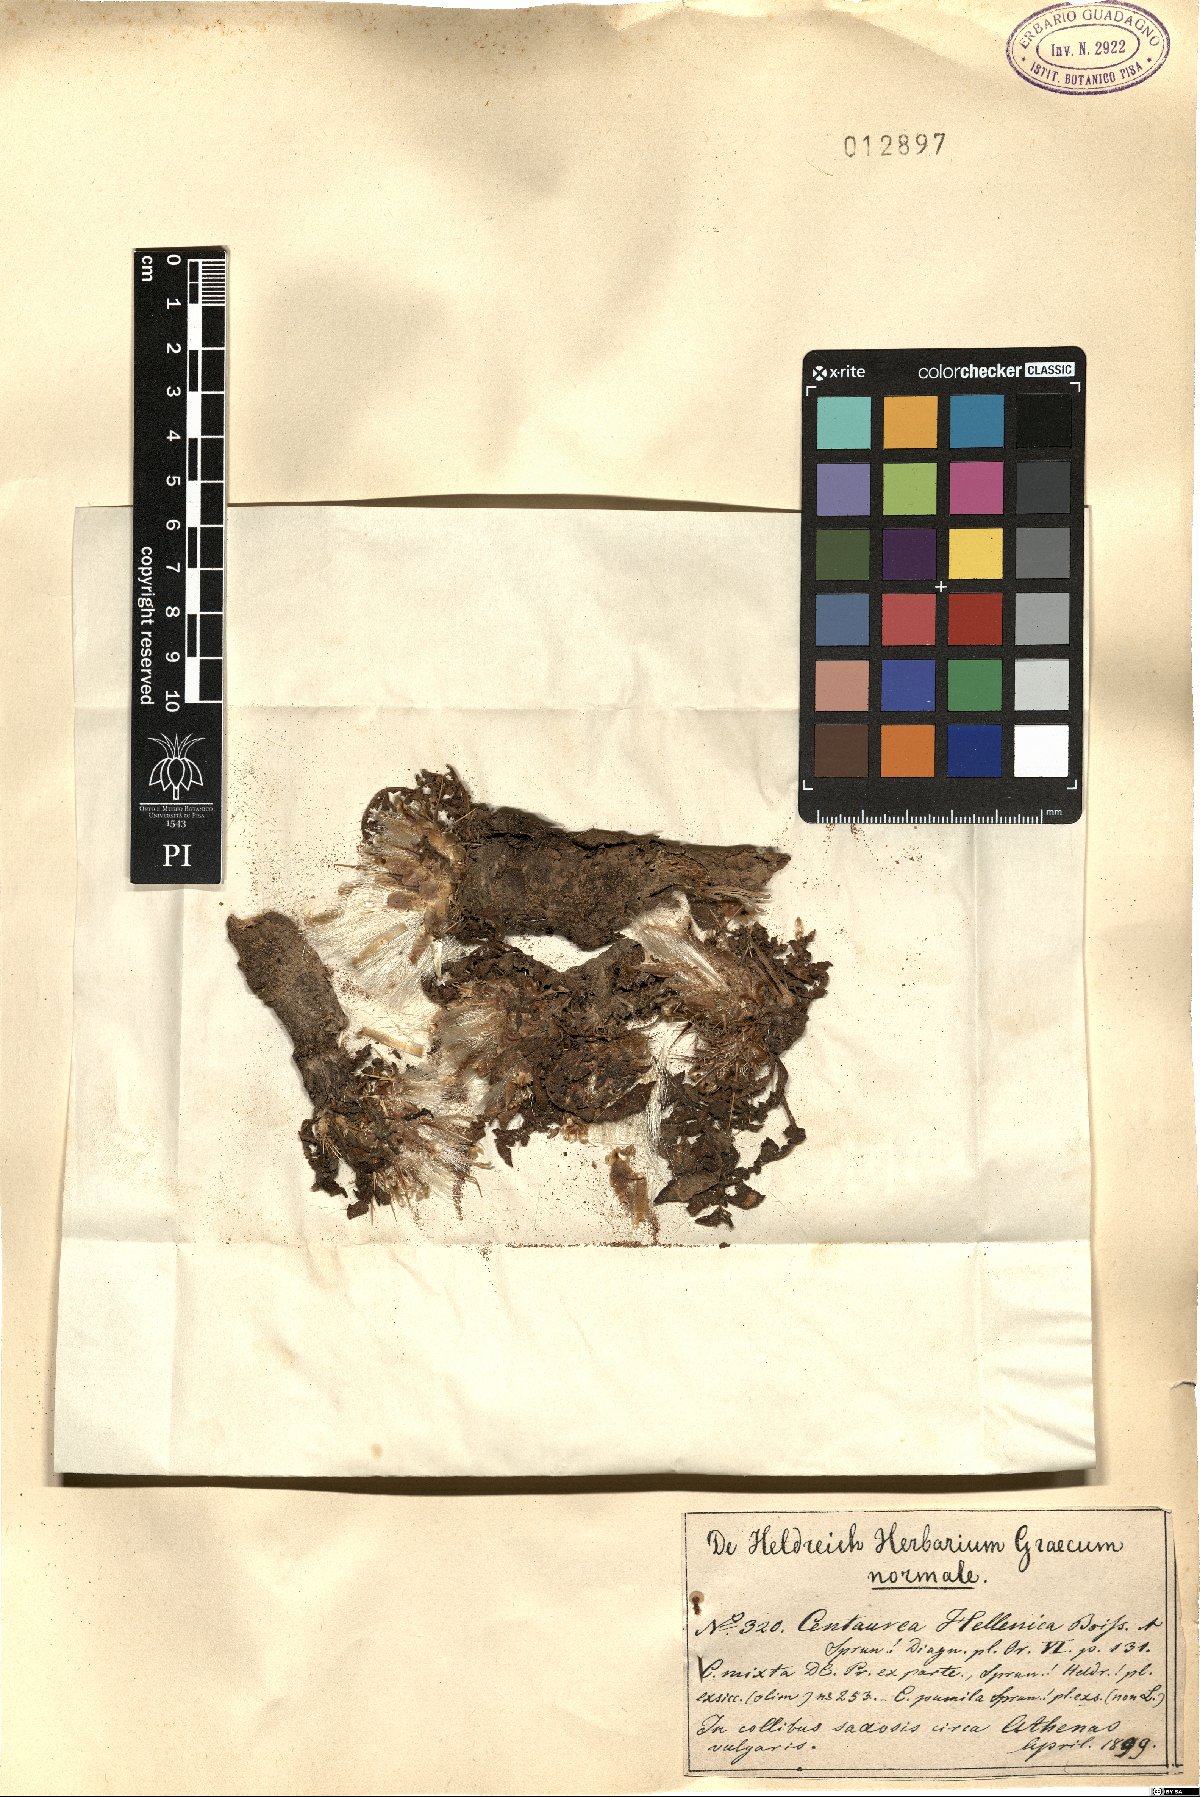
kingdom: Plantae
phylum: Tracheophyta
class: Magnoliopsida
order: Asterales
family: Asteraceae
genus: Centaurea
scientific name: Centaurea raphanina
